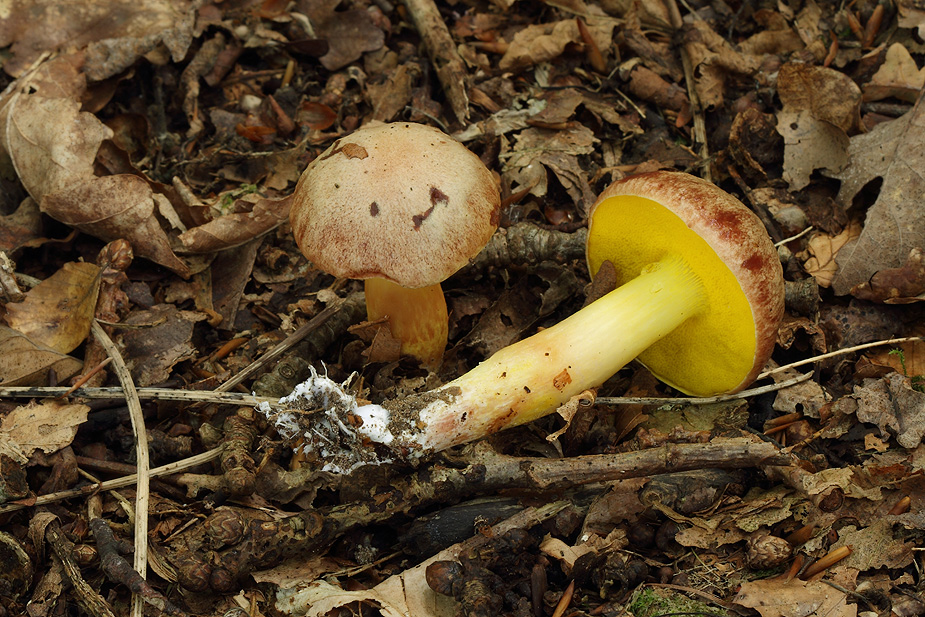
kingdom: Fungi
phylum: Basidiomycota
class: Agaricomycetes
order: Boletales
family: Boletaceae
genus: Aureoboletus
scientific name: Aureoboletus gentilis
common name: guldrørhat
